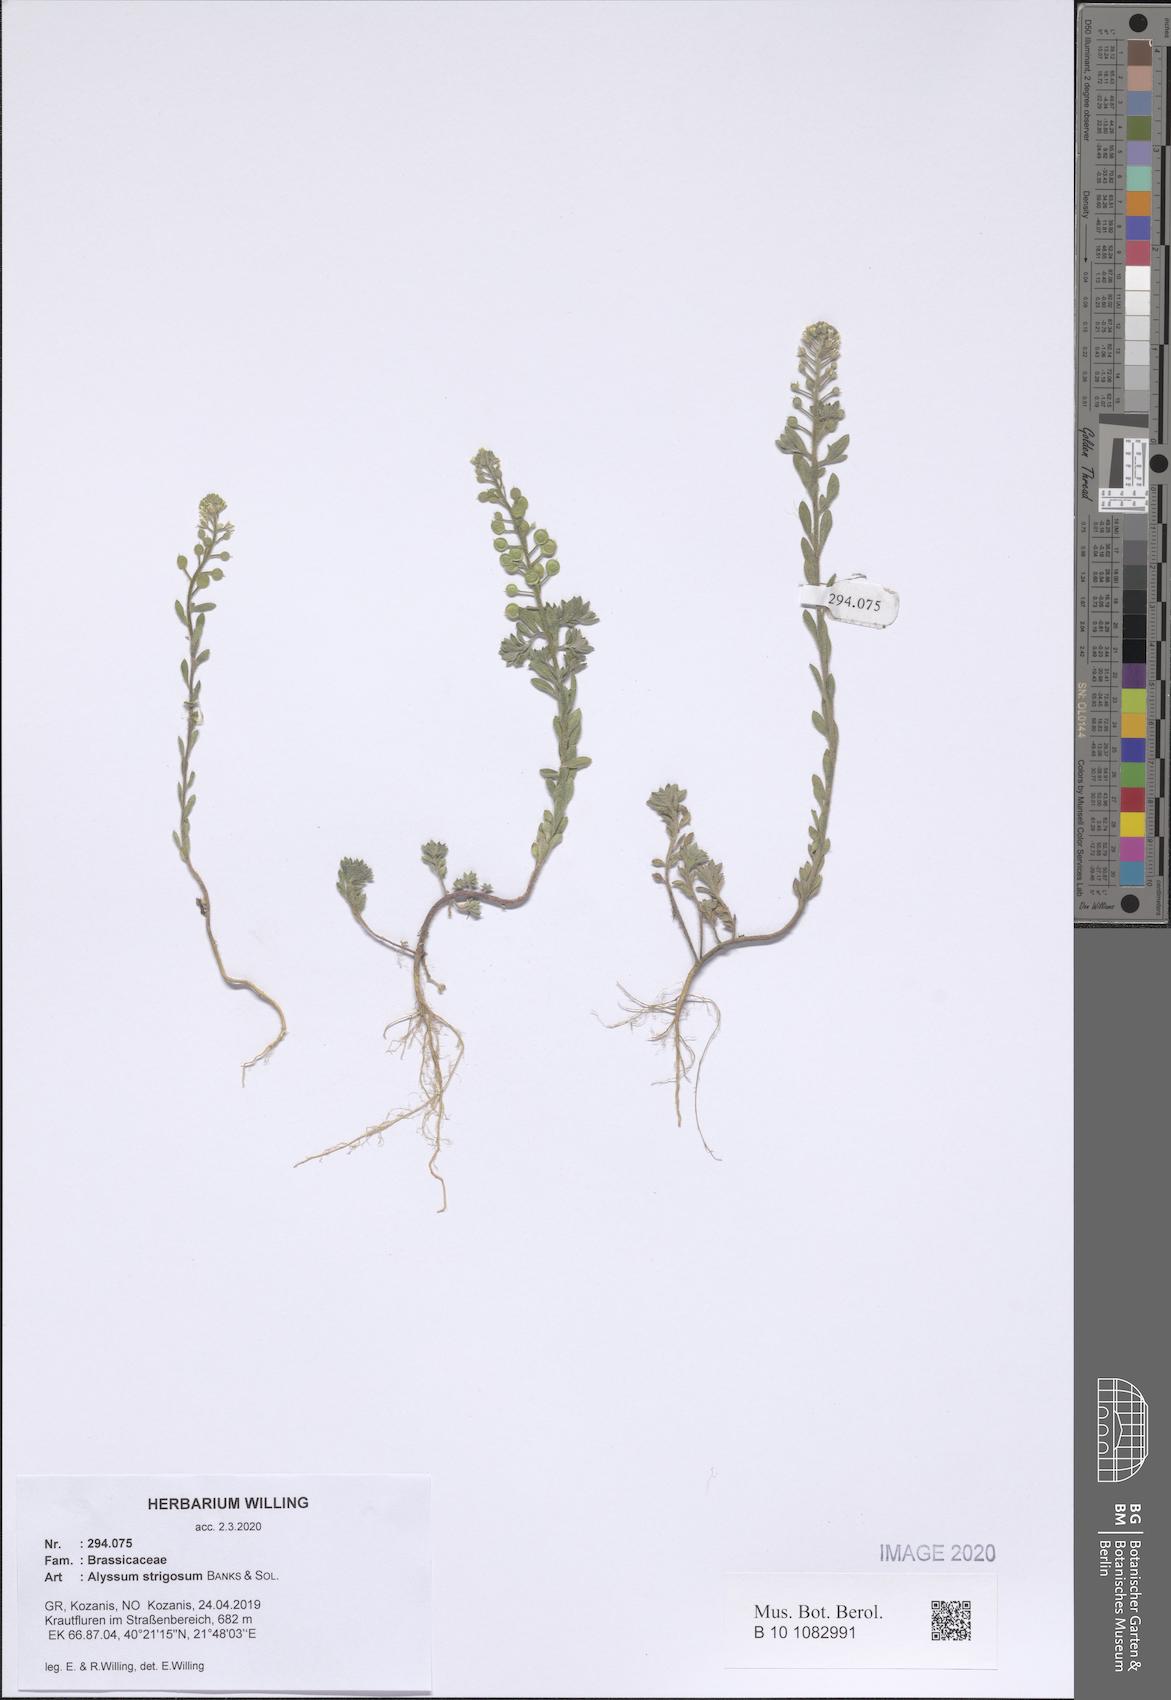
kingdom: Plantae
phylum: Tracheophyta
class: Magnoliopsida
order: Brassicales
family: Brassicaceae
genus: Alyssum
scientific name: Alyssum strigosum
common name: Alyssum
